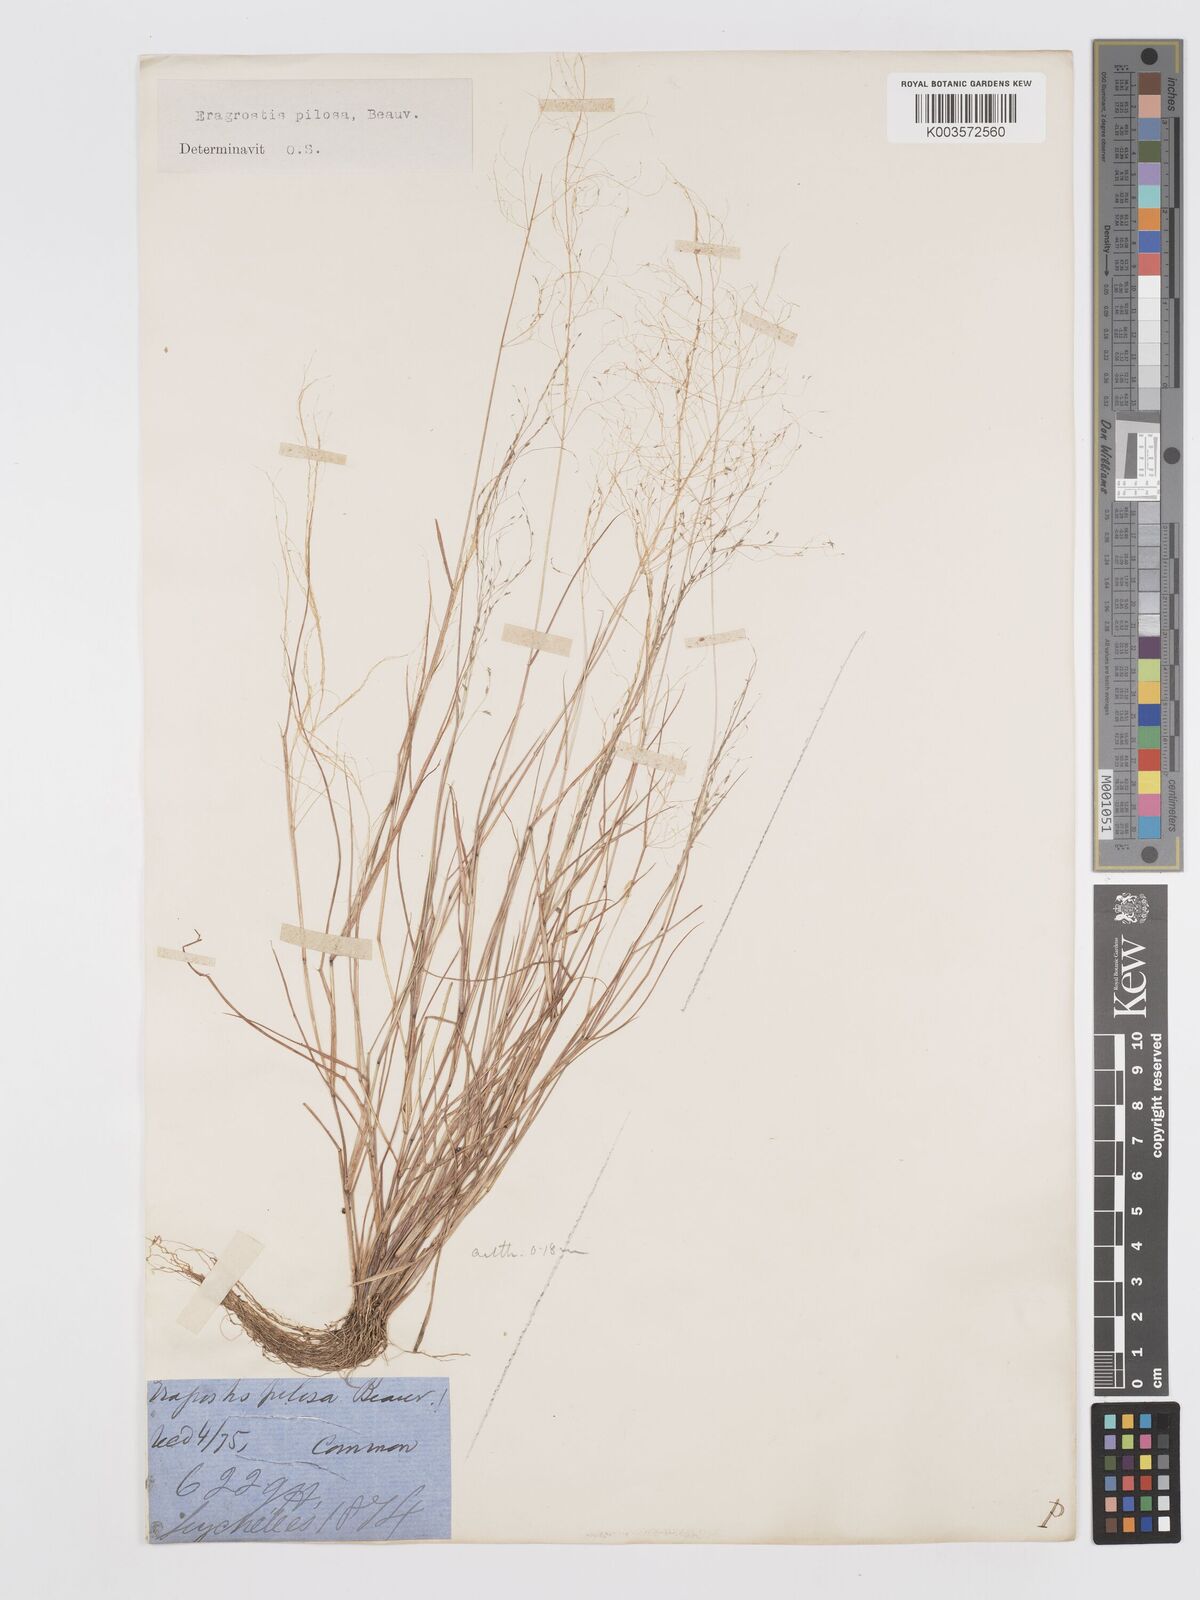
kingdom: Plantae
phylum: Tracheophyta
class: Liliopsida
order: Poales
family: Poaceae
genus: Eragrostis
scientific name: Eragrostis pilosa
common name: Indian lovegrass
